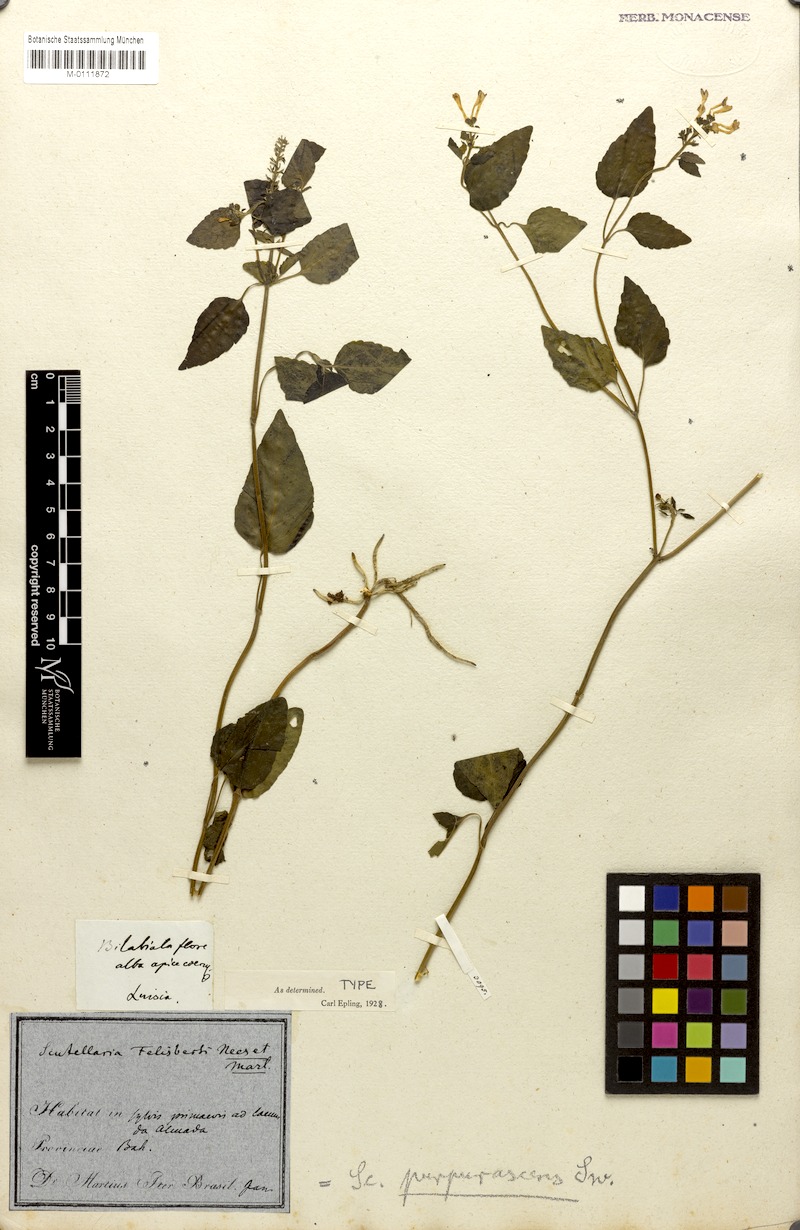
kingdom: Plantae
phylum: Tracheophyta
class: Magnoliopsida
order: Lamiales
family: Lamiaceae
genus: Scutellaria
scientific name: Scutellaria purpurascens
